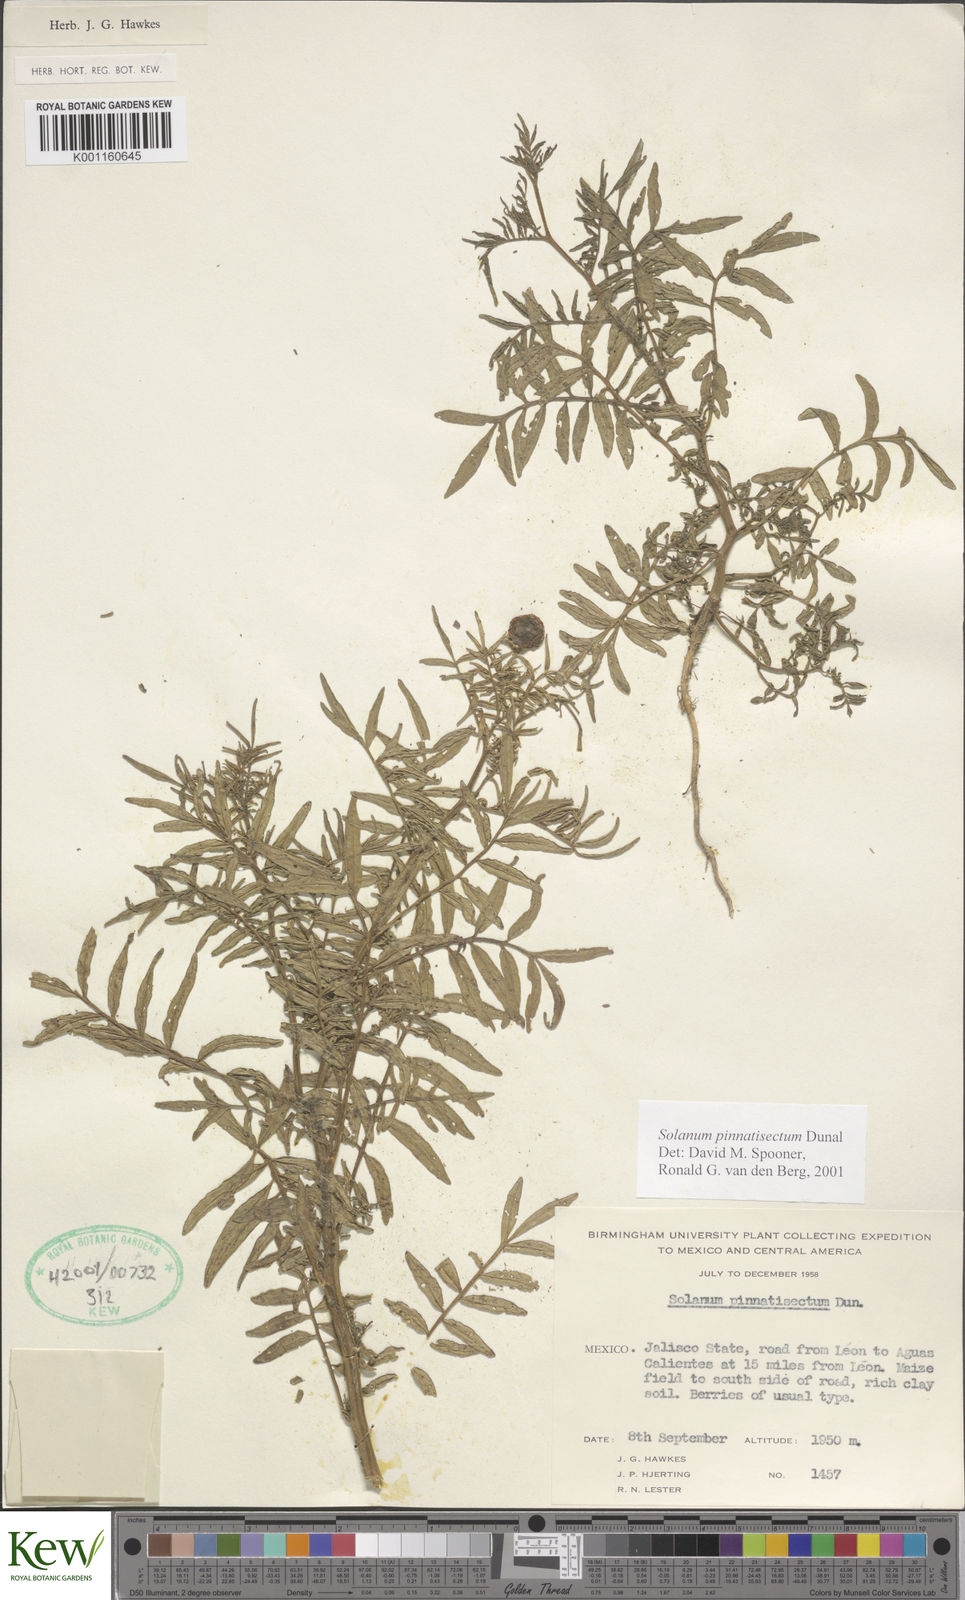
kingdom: Plantae
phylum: Tracheophyta
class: Magnoliopsida
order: Solanales
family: Solanaceae
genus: Solanum
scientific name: Solanum pinnatisectum
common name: Tansyleaf nightshade
